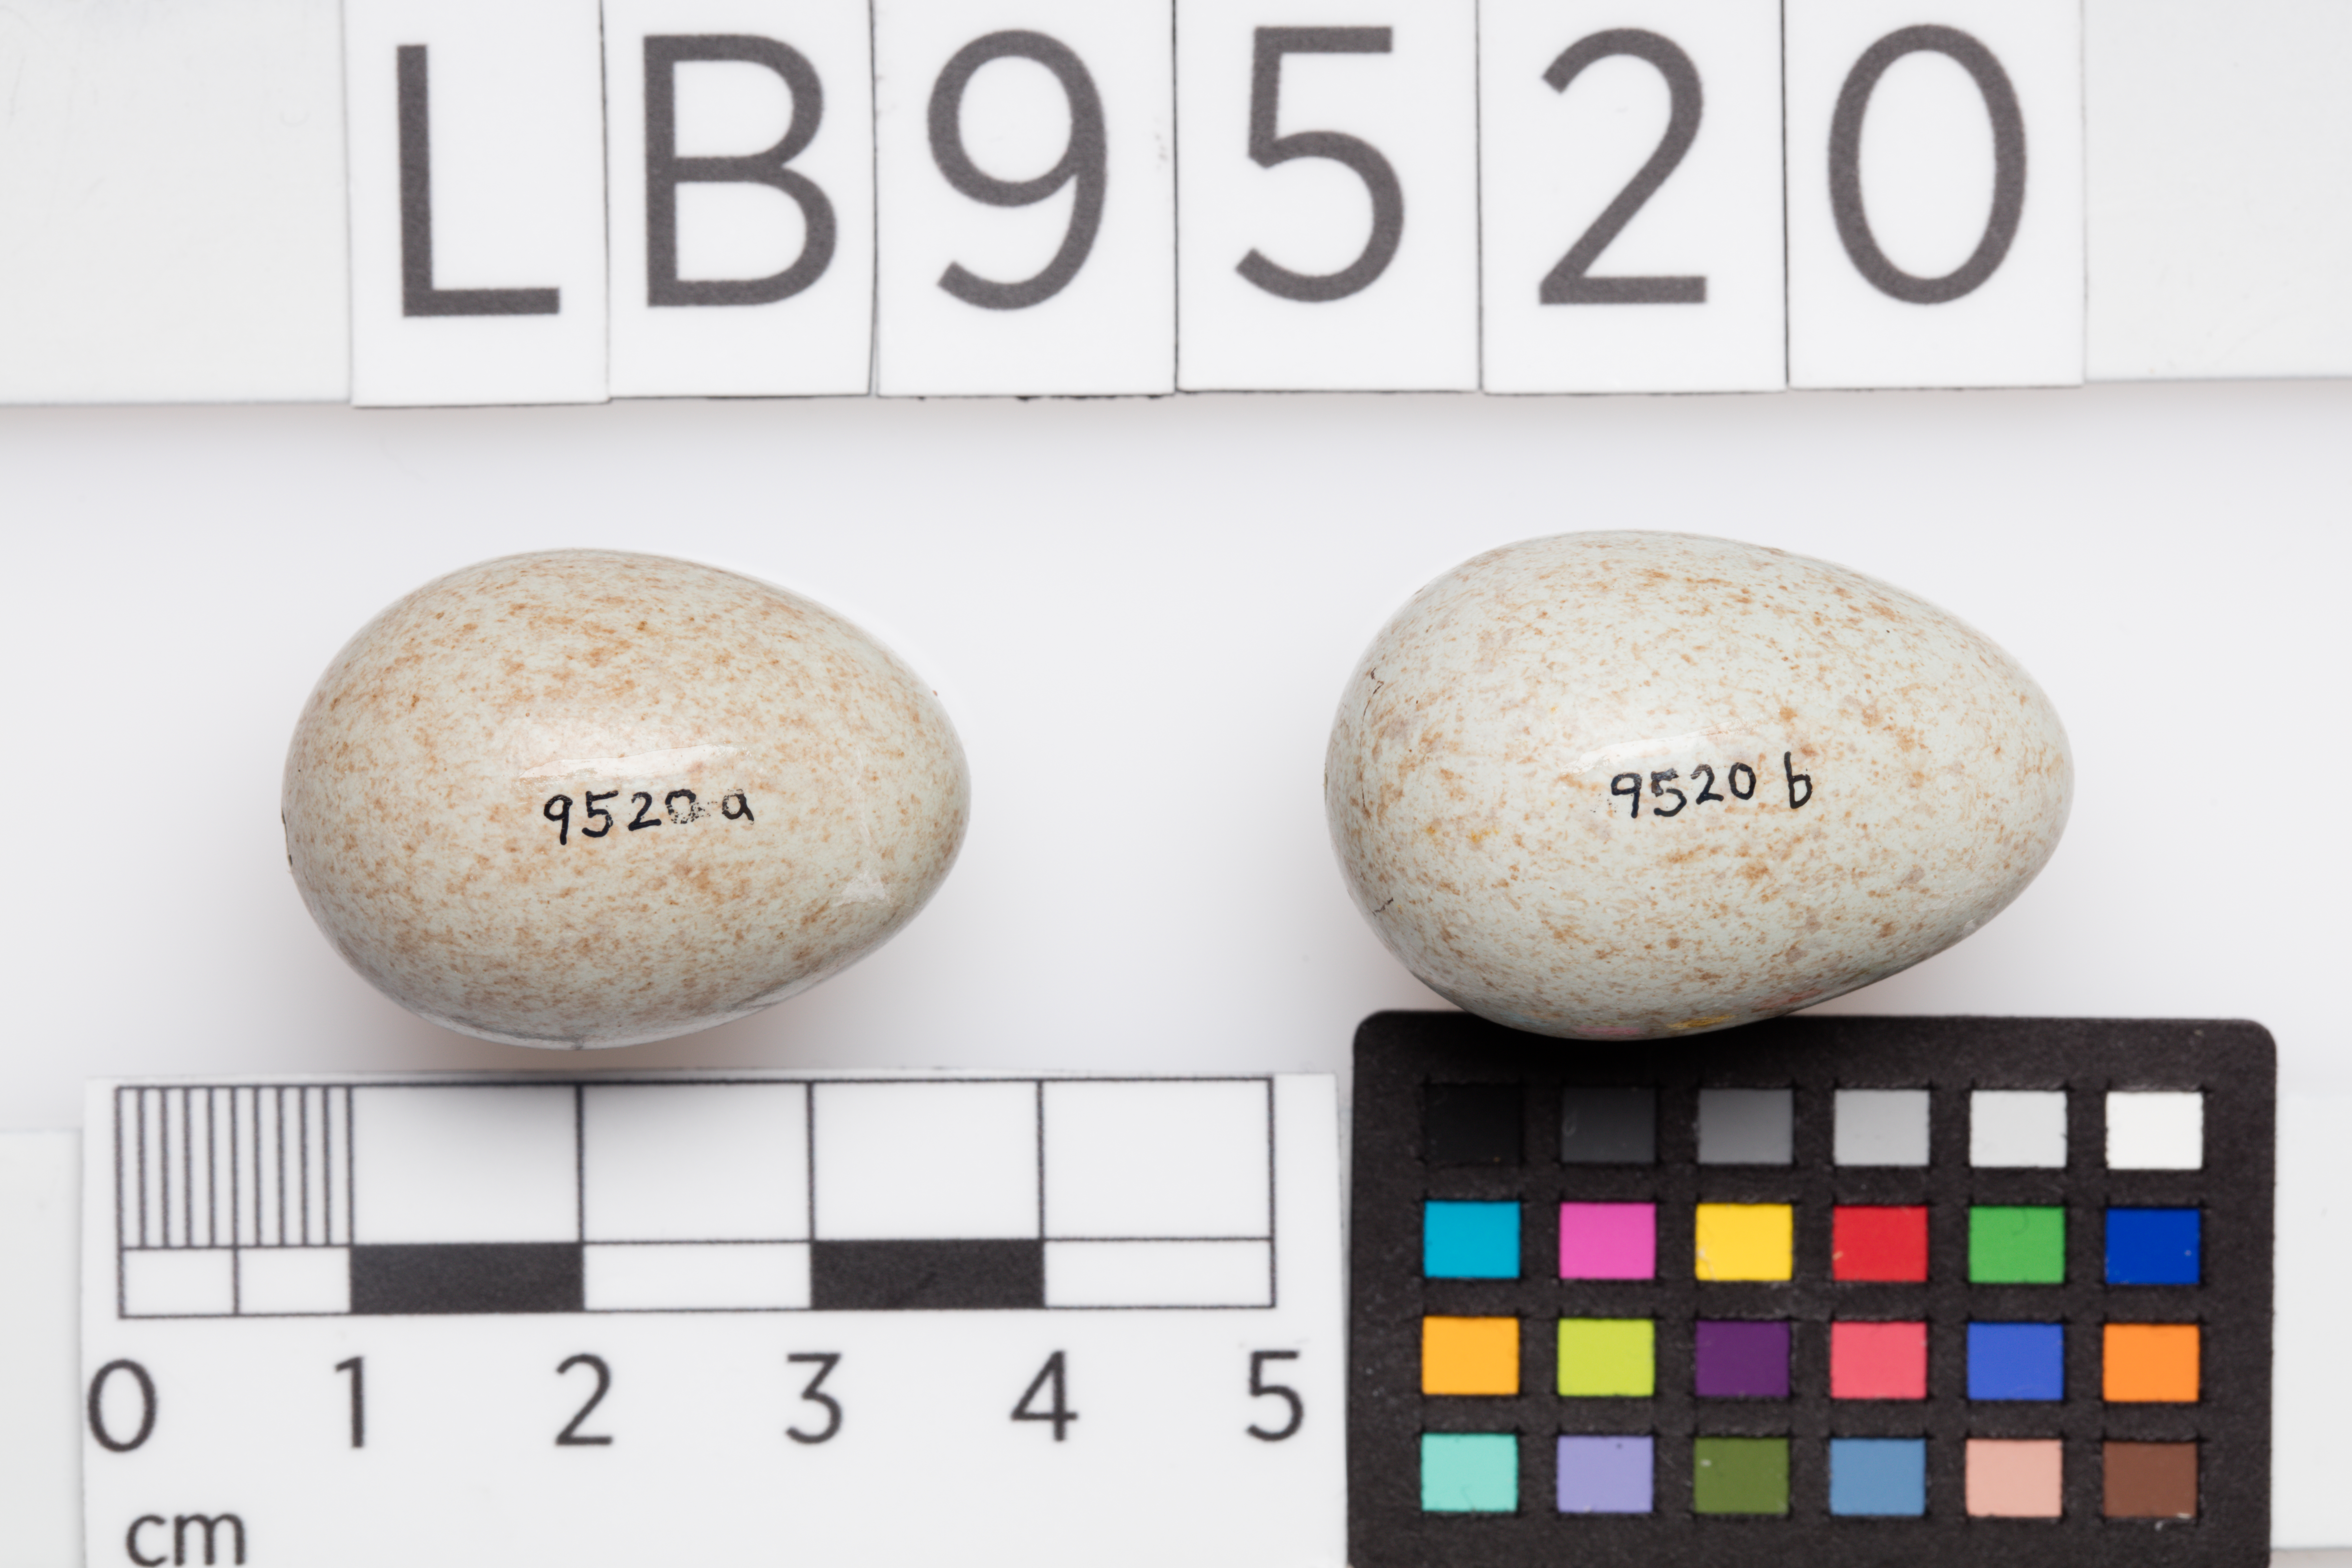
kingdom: Animalia
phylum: Chordata
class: Aves
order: Passeriformes
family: Turdidae
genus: Turdus
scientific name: Turdus merula
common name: Common blackbird
